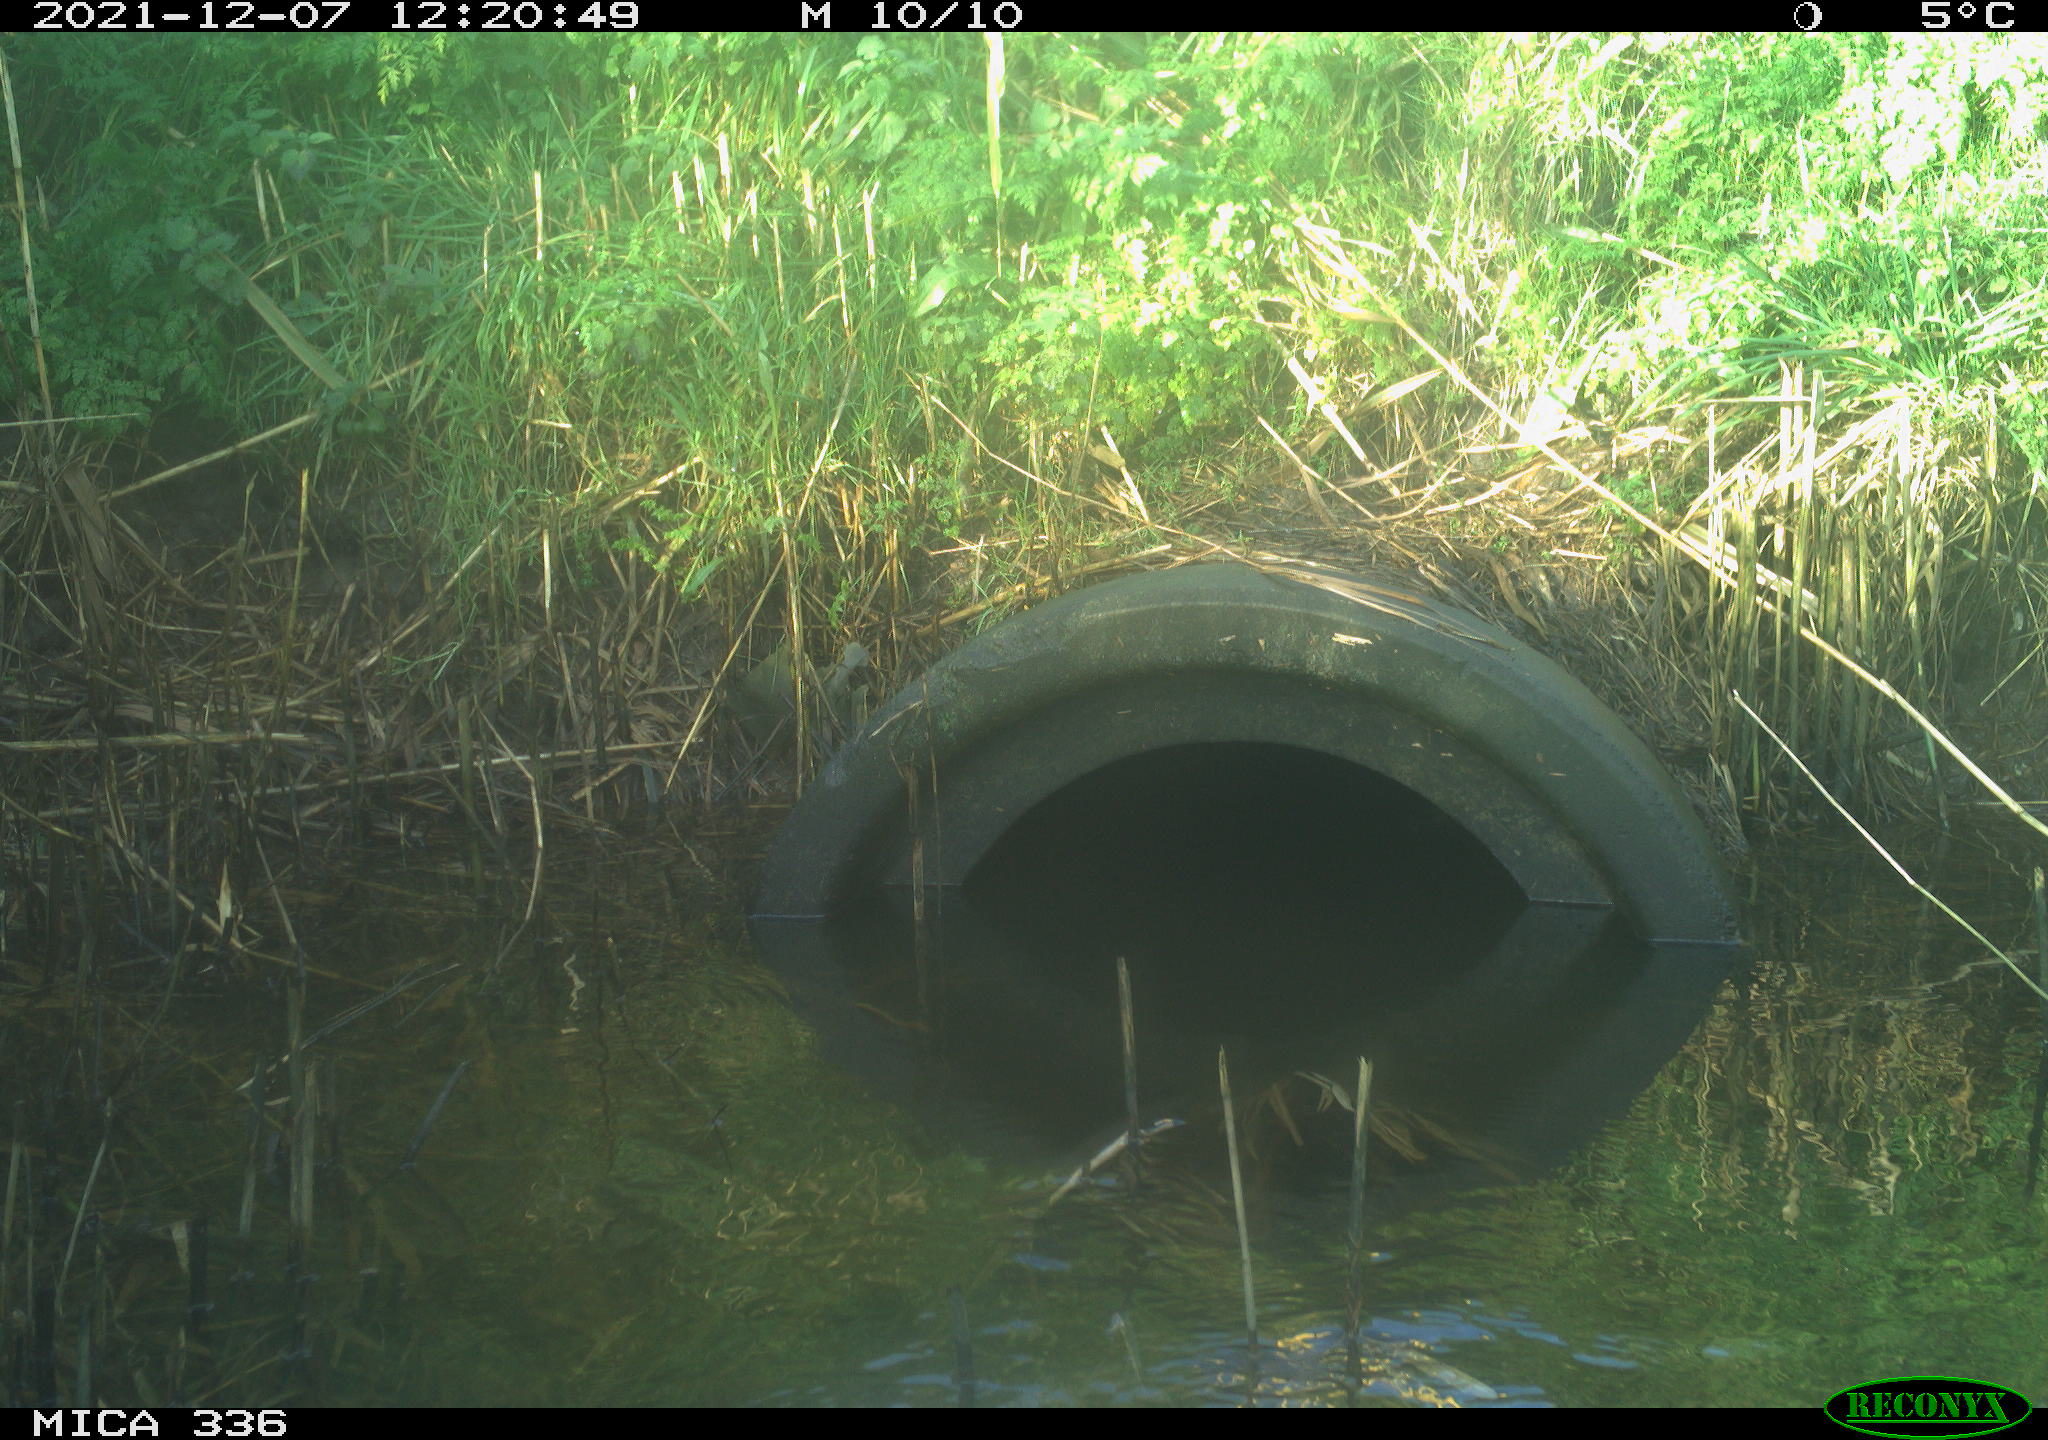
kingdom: Animalia
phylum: Chordata
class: Aves
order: Gruiformes
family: Rallidae
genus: Gallinula
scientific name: Gallinula chloropus
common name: Common moorhen
